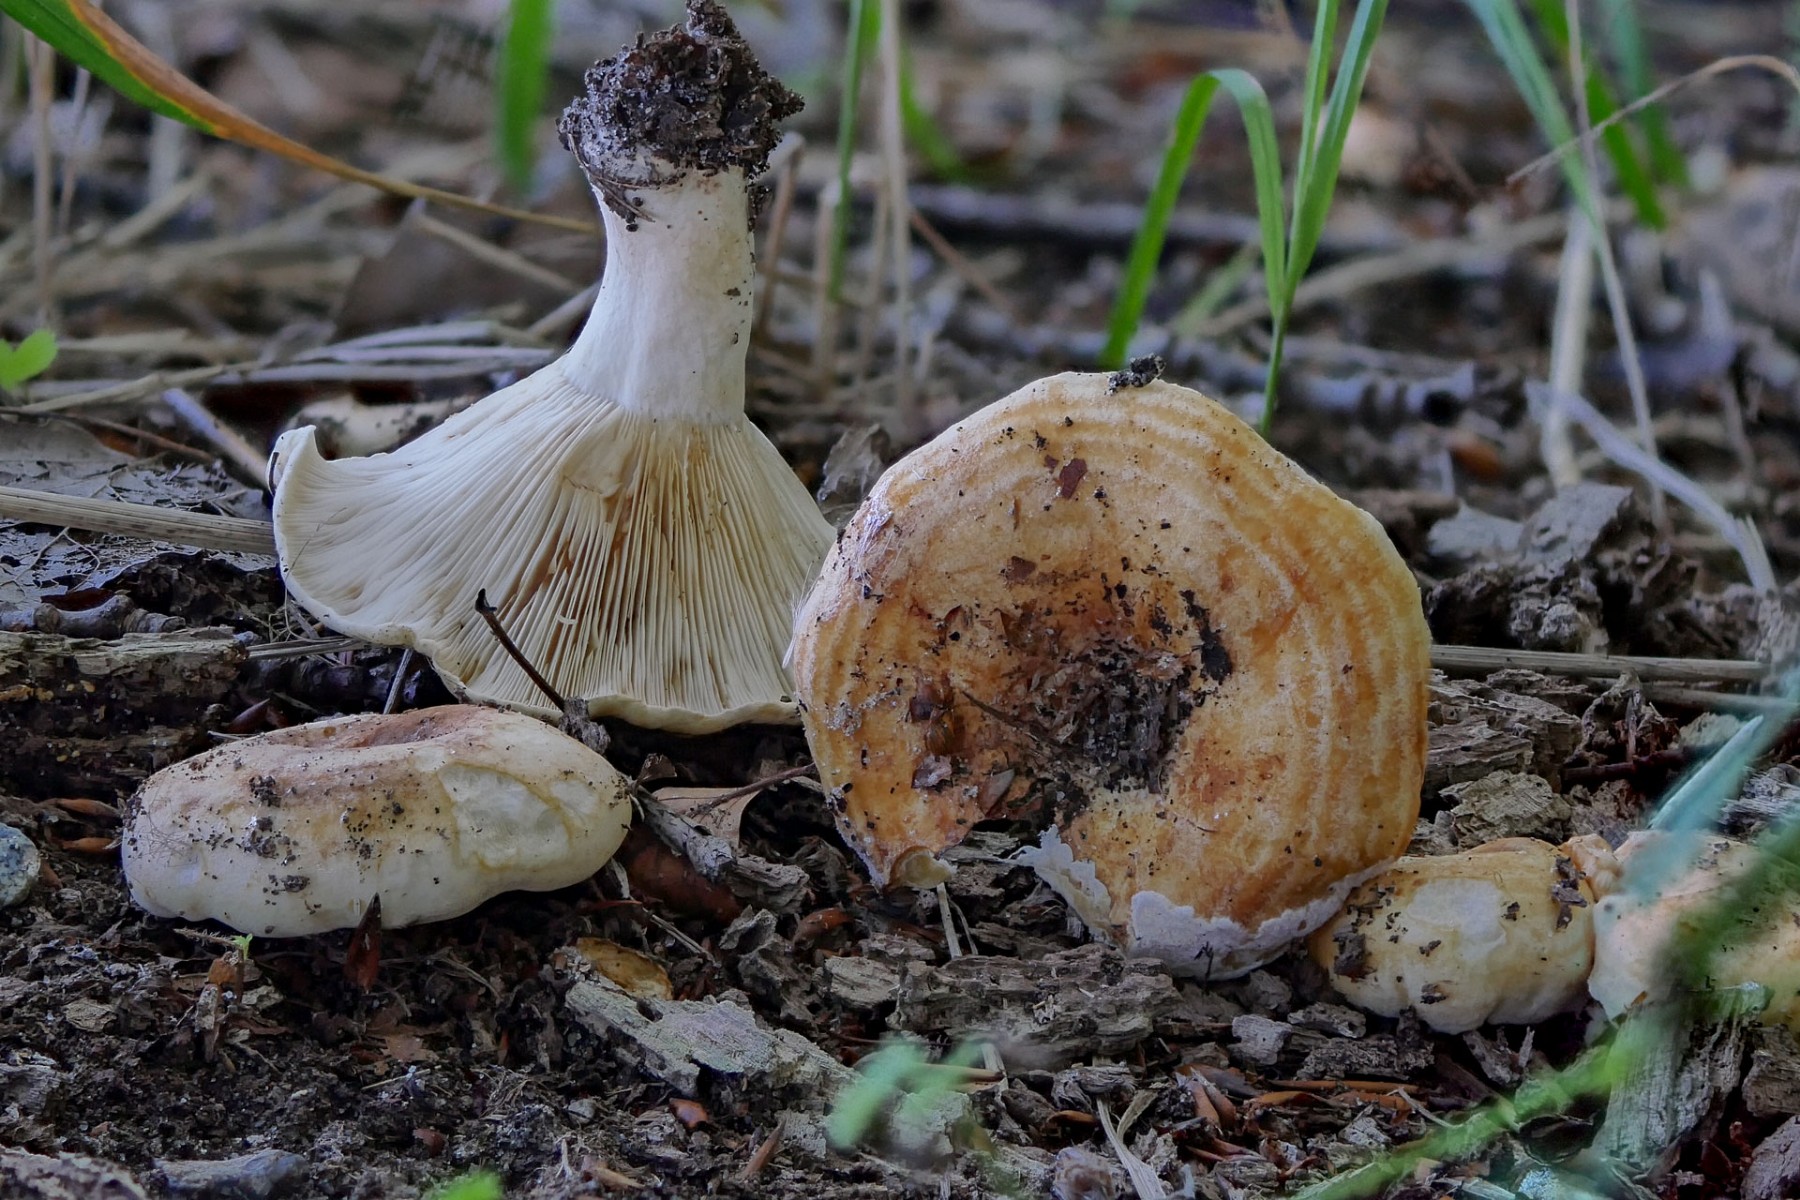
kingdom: Fungi
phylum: Basidiomycota
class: Agaricomycetes
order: Russulales
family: Russulaceae
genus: Lactarius
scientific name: Lactarius evosmus
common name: bæltet mælkehat
